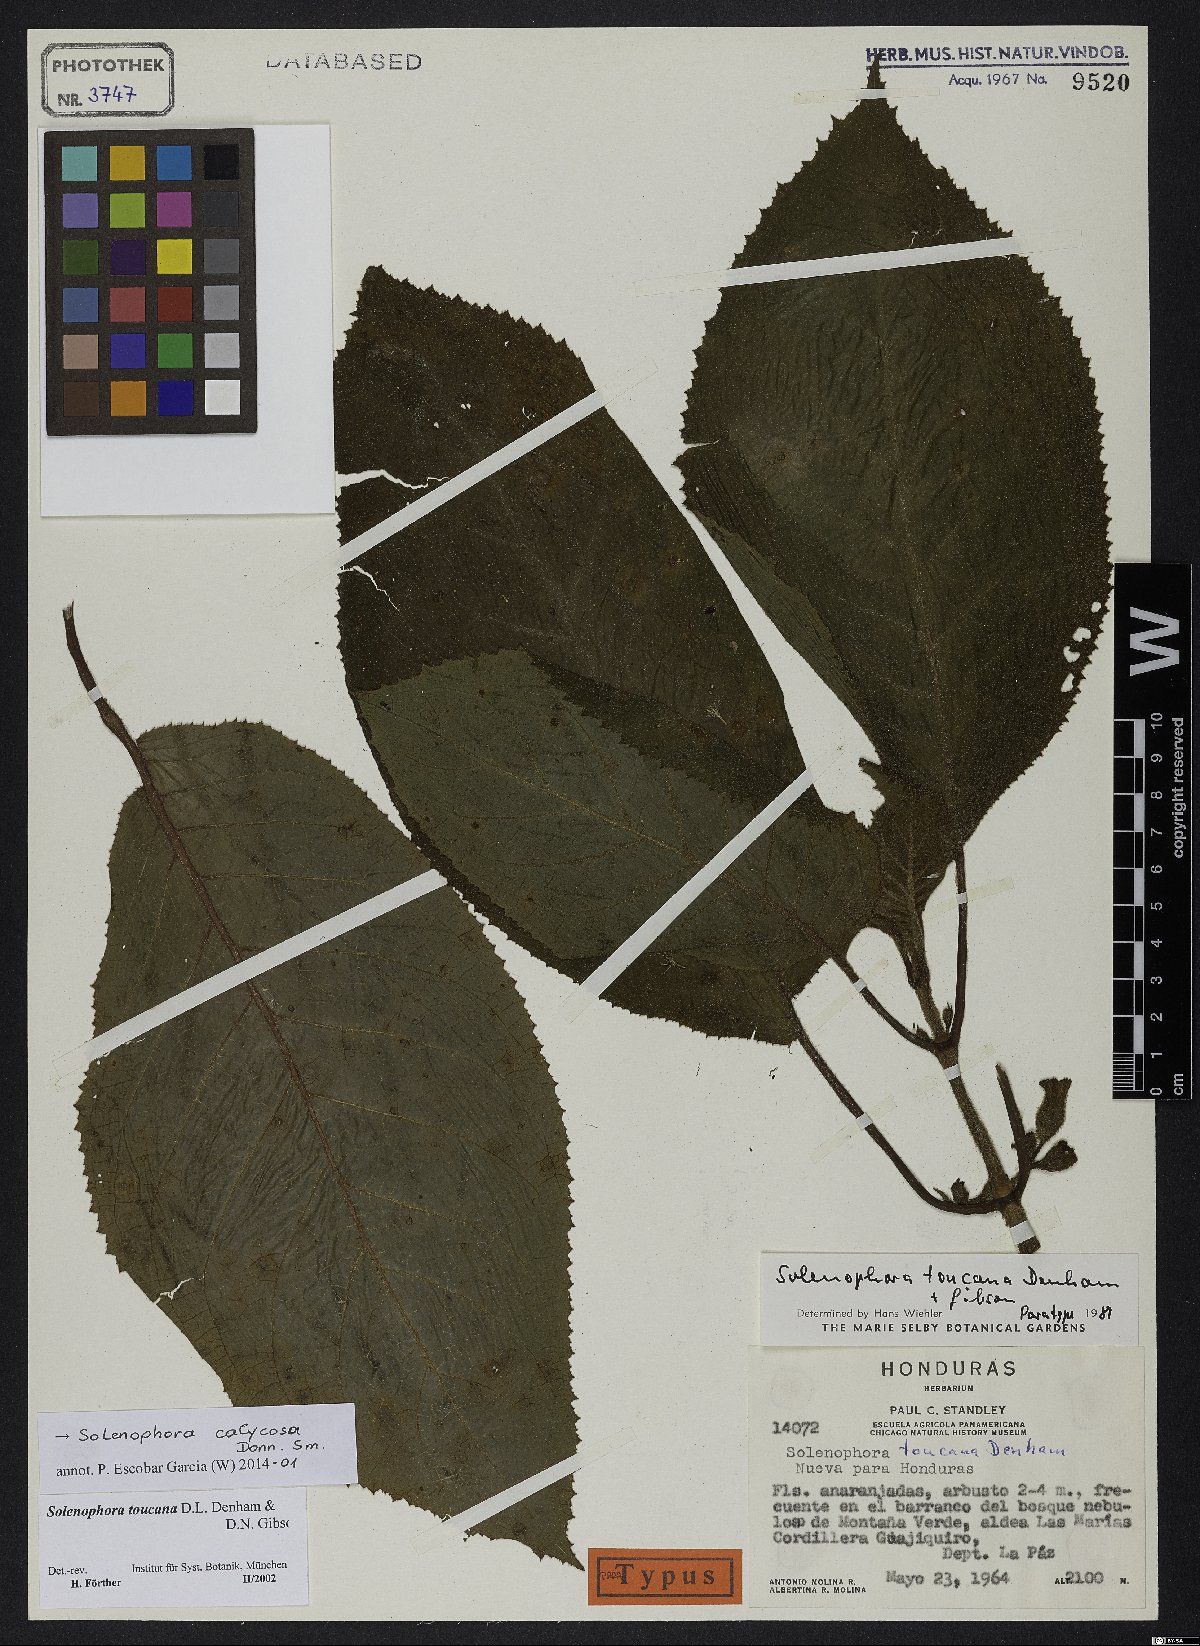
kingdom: Plantae
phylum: Tracheophyta
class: Magnoliopsida
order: Lamiales
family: Gesneriaceae
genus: Solenophora
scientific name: Solenophora calycosa
